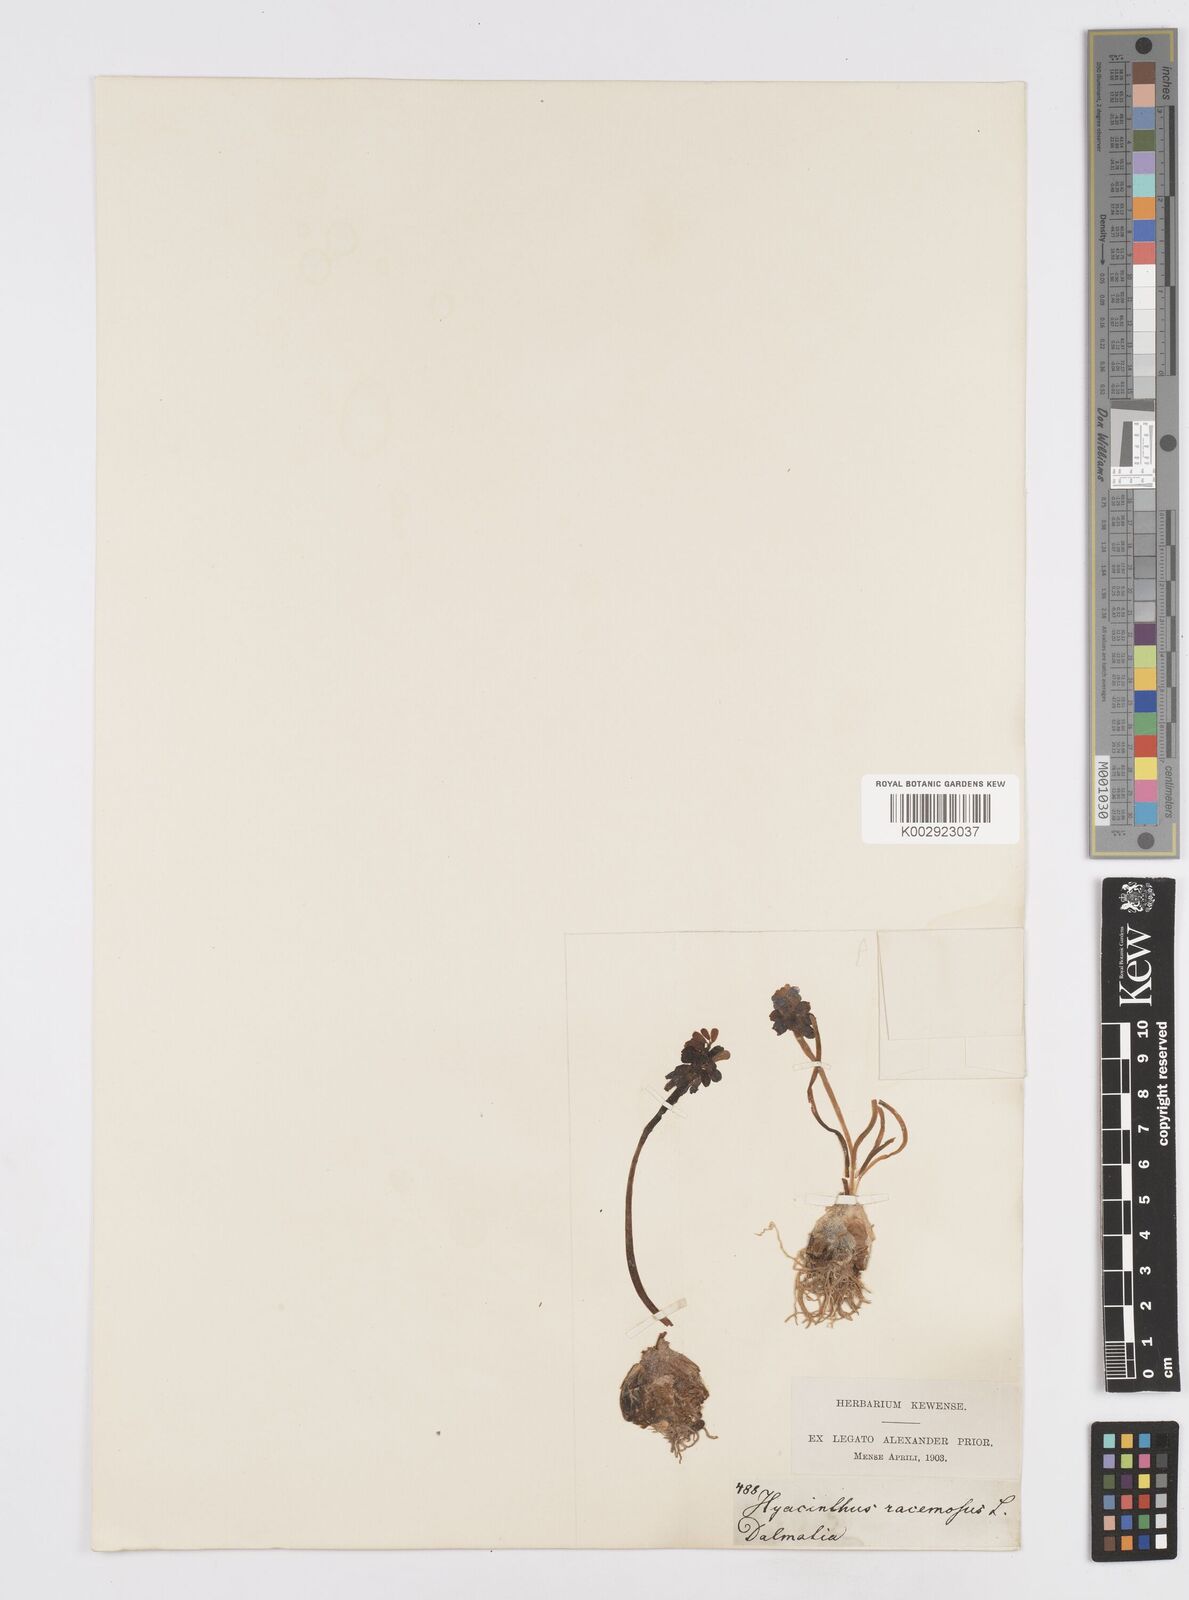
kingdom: Plantae
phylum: Tracheophyta
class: Liliopsida
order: Asparagales
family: Asparagaceae
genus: Muscarimia
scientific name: Muscarimia muscari
